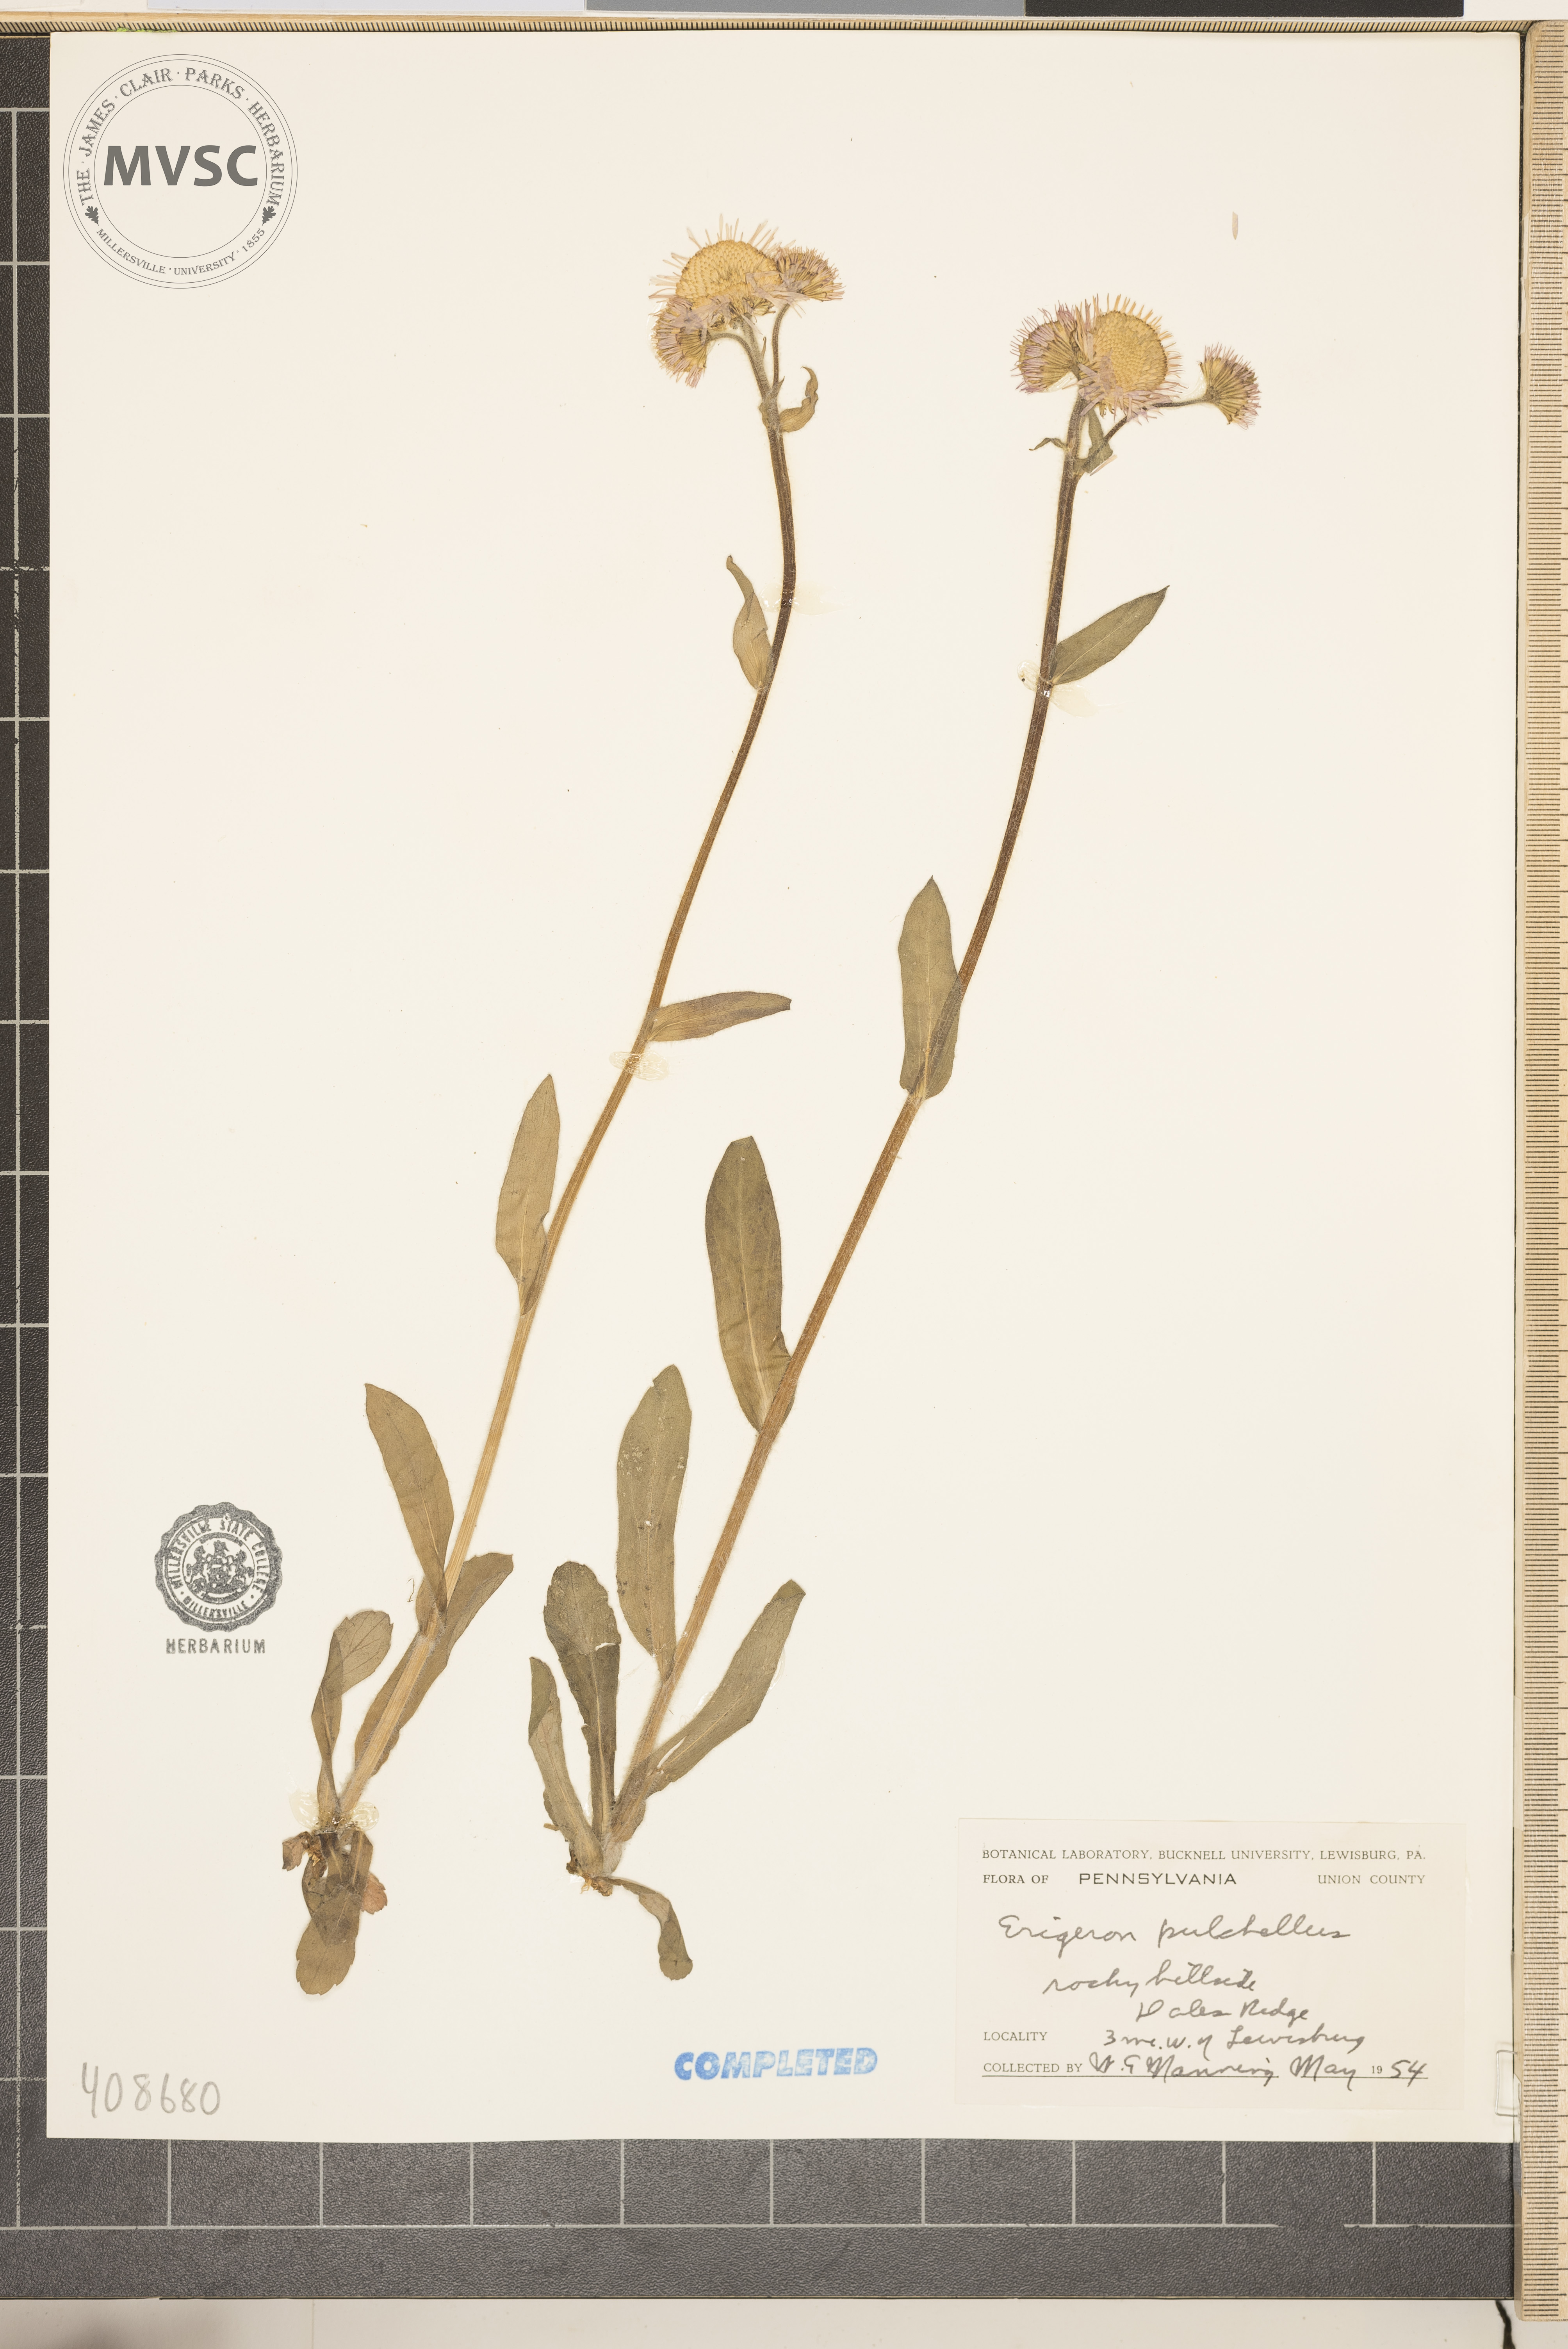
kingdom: Plantae
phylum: Tracheophyta
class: Magnoliopsida
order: Asterales
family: Asteraceae
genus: Erigeron
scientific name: Erigeron pulchellus
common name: Hairy fleabane
